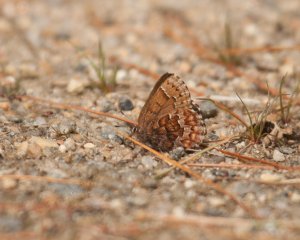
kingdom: Animalia
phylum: Arthropoda
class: Insecta
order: Lepidoptera
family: Lycaenidae
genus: Incisalia
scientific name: Incisalia niphon
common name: Eastern Pine Elfin
